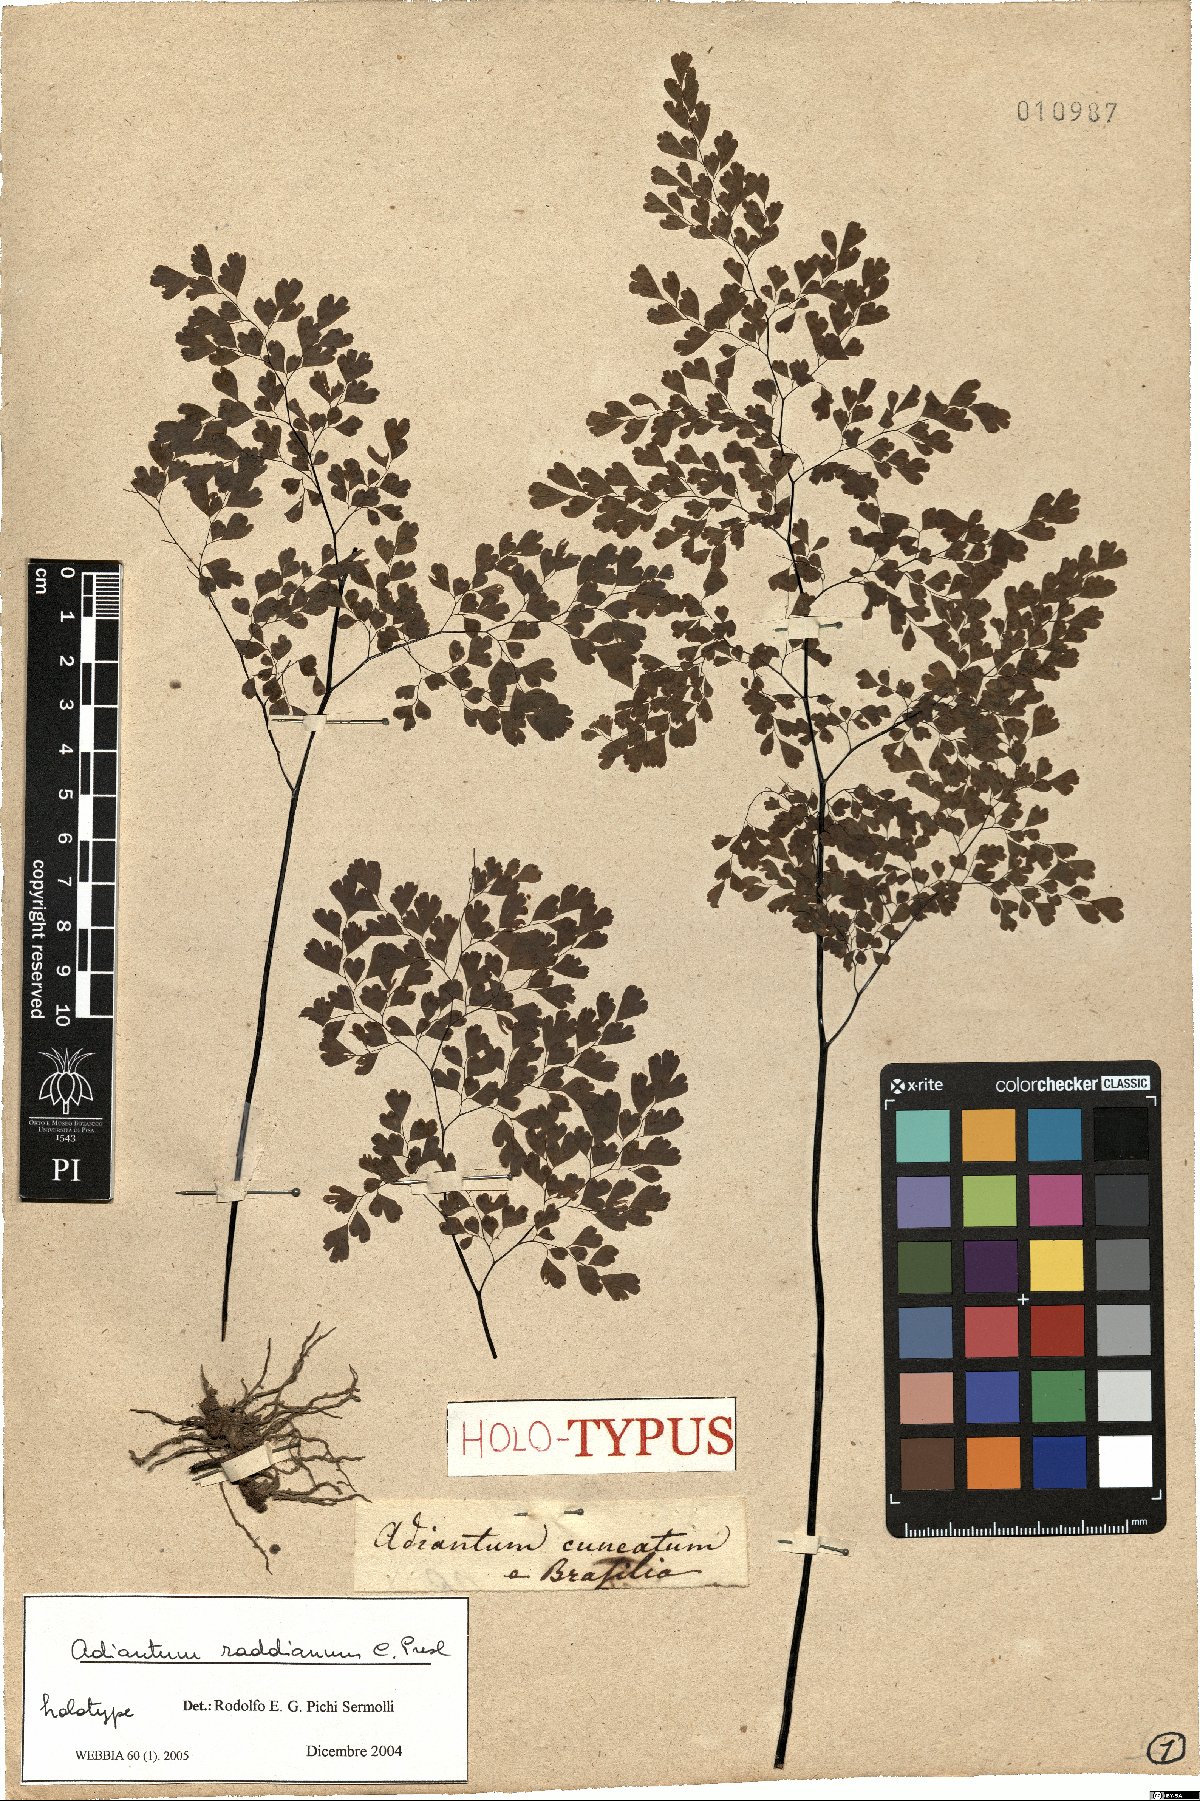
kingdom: Plantae
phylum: Tracheophyta
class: Polypodiopsida
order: Polypodiales
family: Pteridaceae
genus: Adiantum
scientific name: Adiantum raddianum
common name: Delta maidenhair fern
